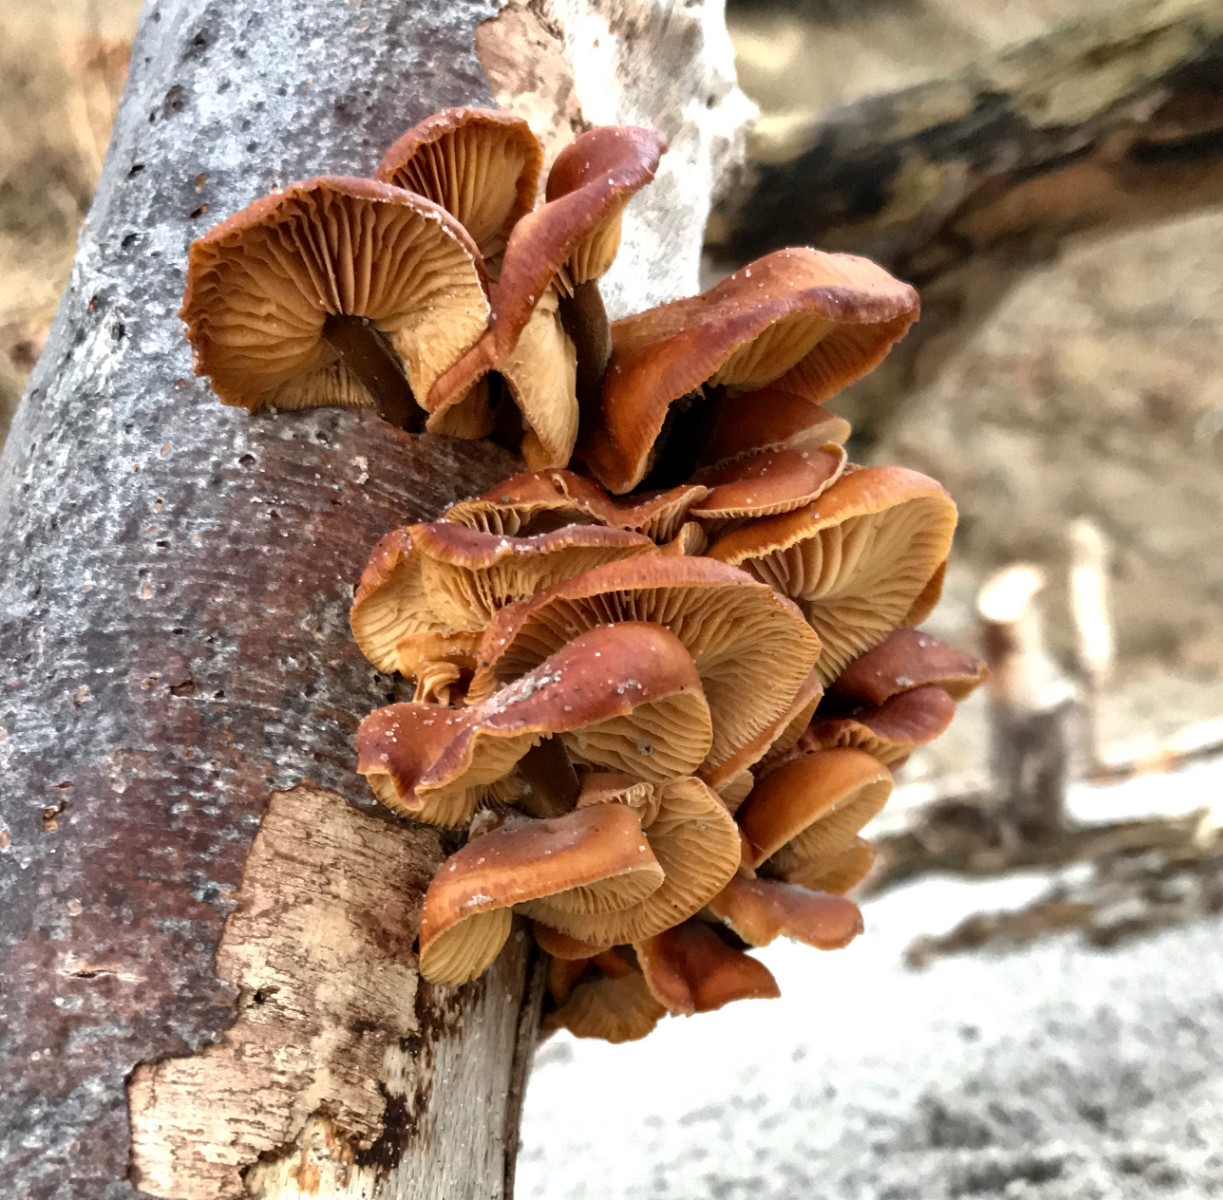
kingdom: Fungi
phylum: Basidiomycota
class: Agaricomycetes
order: Agaricales
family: Physalacriaceae
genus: Flammulina
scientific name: Flammulina velutipes
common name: gul fløjlsfod
